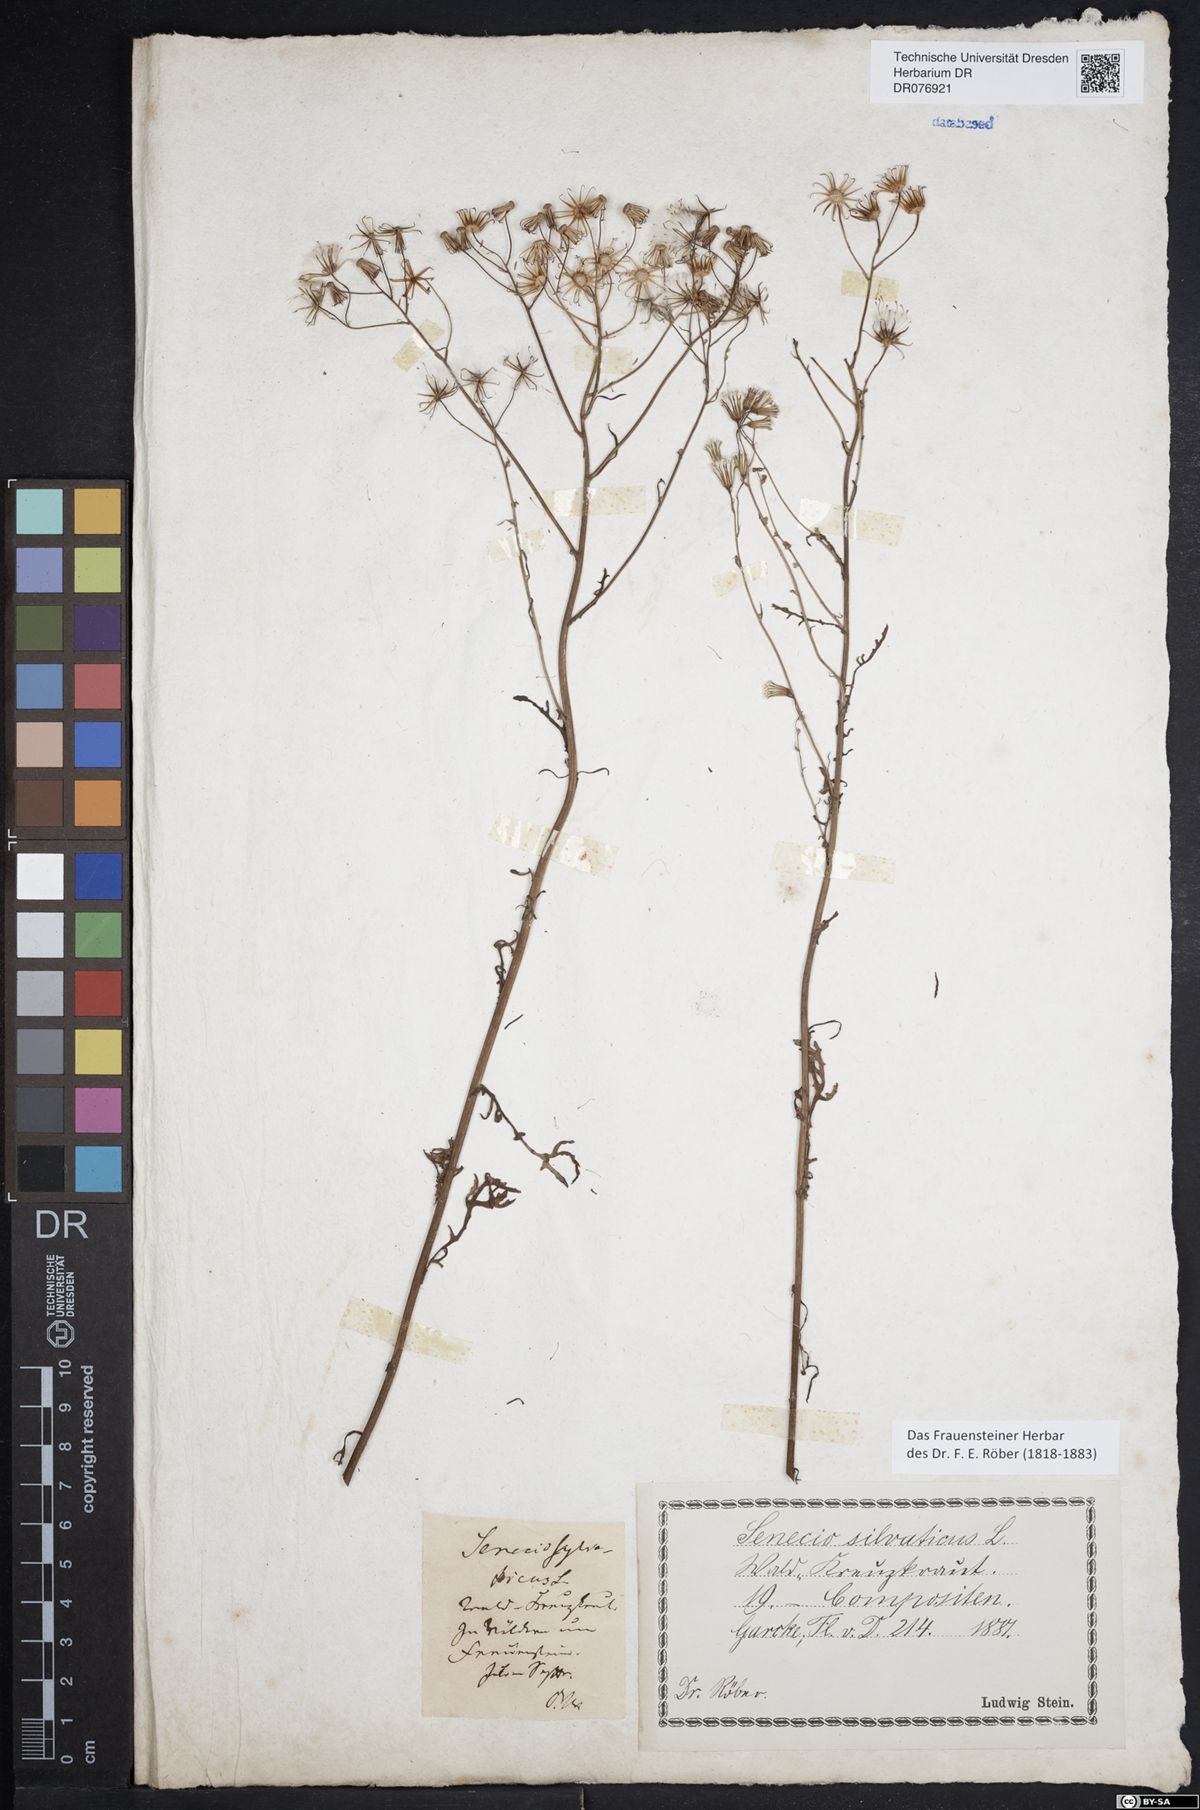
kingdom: Plantae
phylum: Tracheophyta
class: Magnoliopsida
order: Asterales
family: Asteraceae
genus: Senecio
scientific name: Senecio sylvaticus
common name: Woodland ragwort
